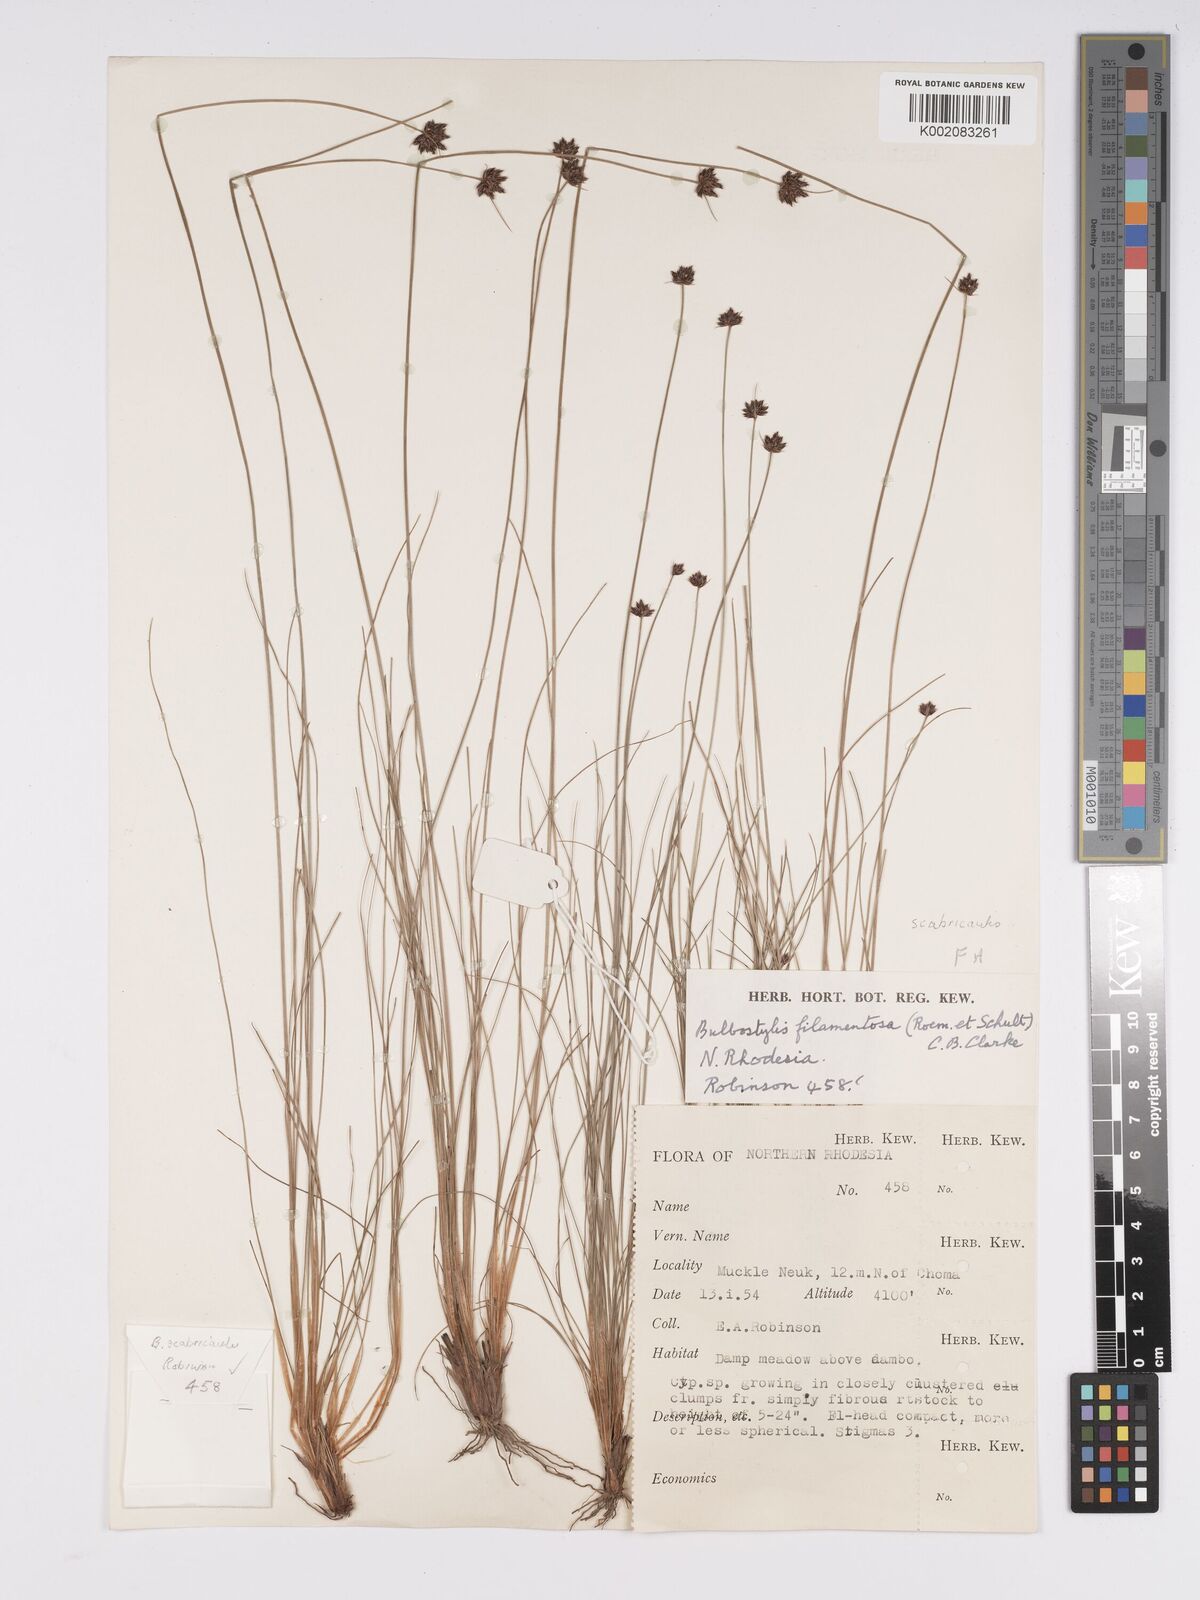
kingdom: Plantae
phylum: Tracheophyta
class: Liliopsida
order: Poales
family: Cyperaceae
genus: Bulbostylis
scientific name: Bulbostylis scabricaulis
